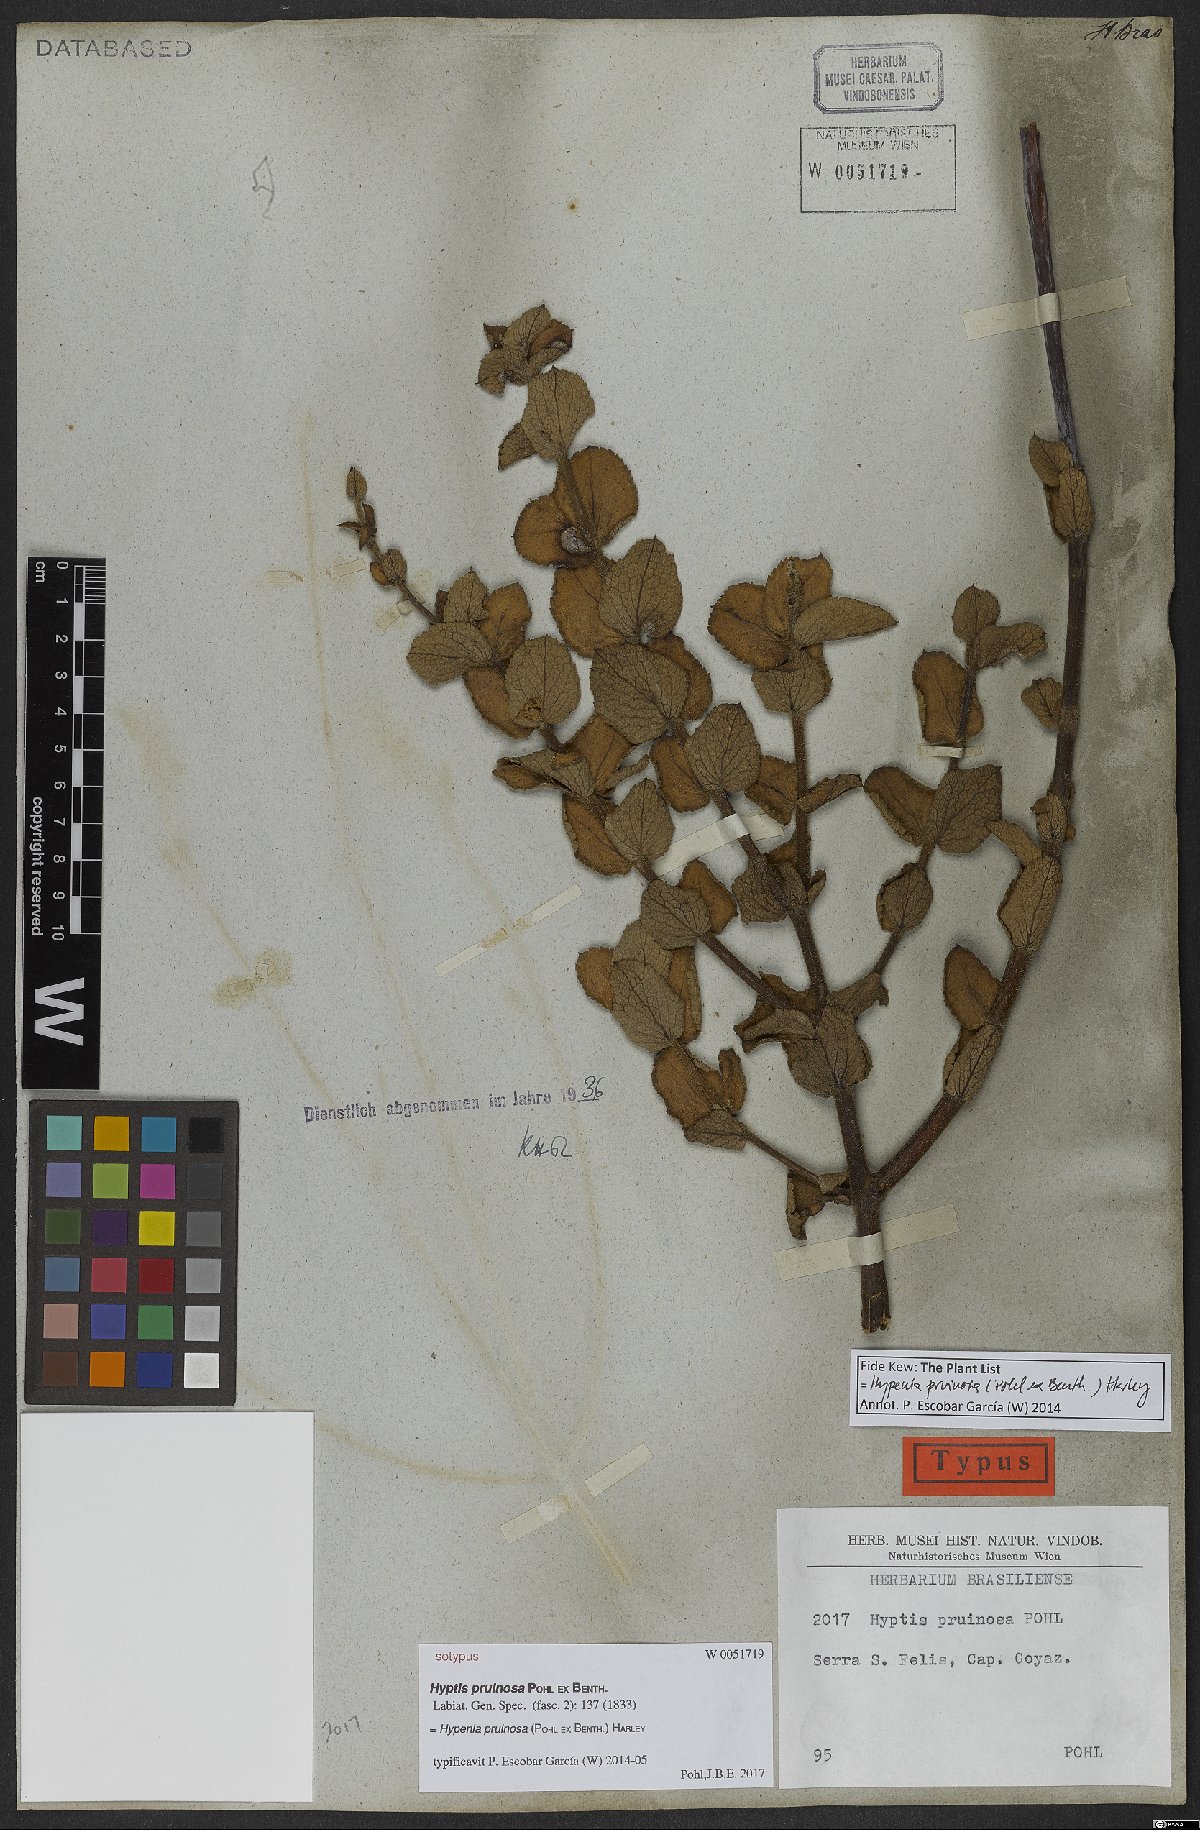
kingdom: Plantae
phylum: Tracheophyta
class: Magnoliopsida
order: Lamiales
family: Lamiaceae
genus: Hypenia
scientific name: Hypenia pruinosa
